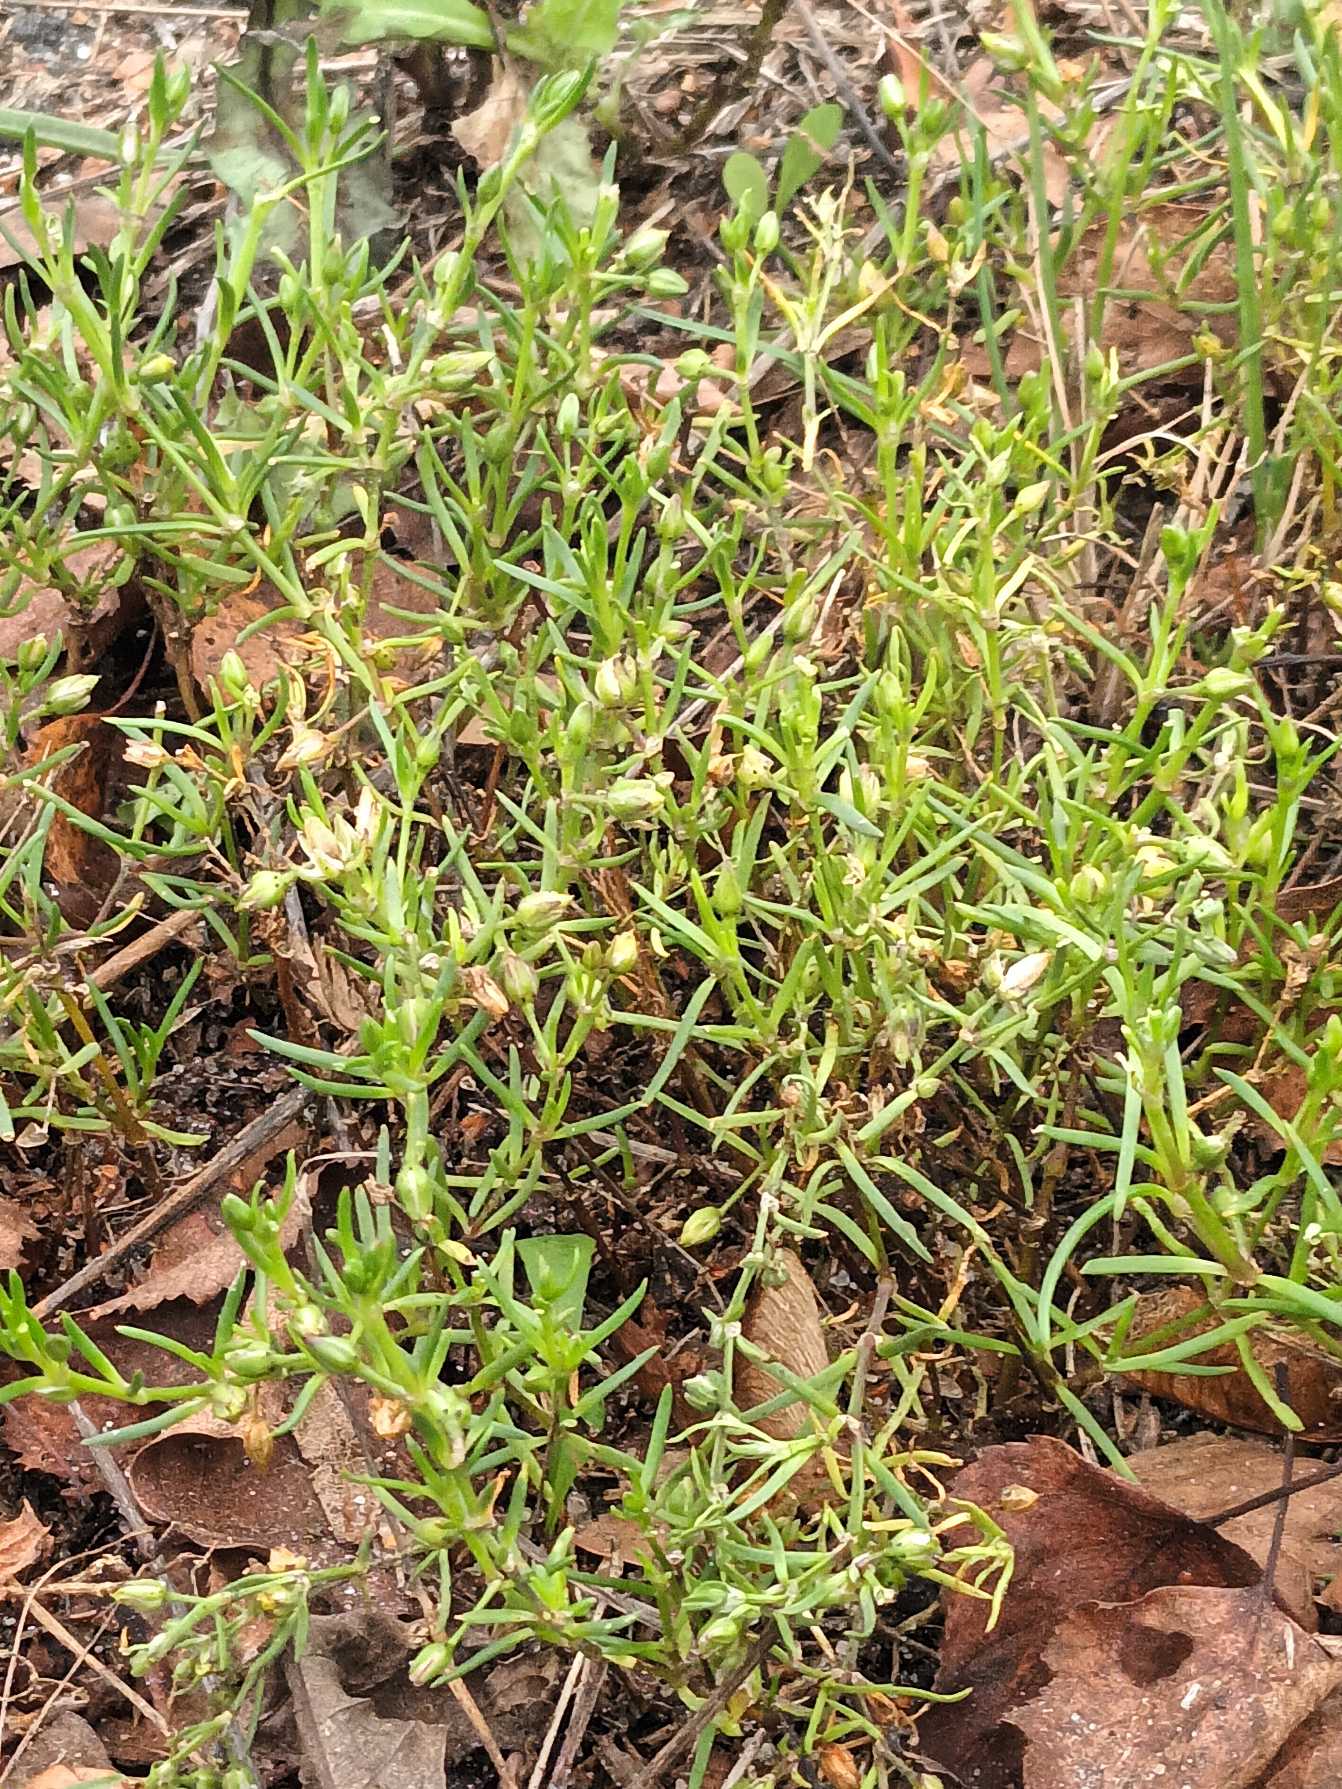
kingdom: Plantae
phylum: Tracheophyta
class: Magnoliopsida
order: Caryophyllales
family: Caryophyllaceae
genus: Spergularia
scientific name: Spergularia marina
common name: Kødet hindeknæ
